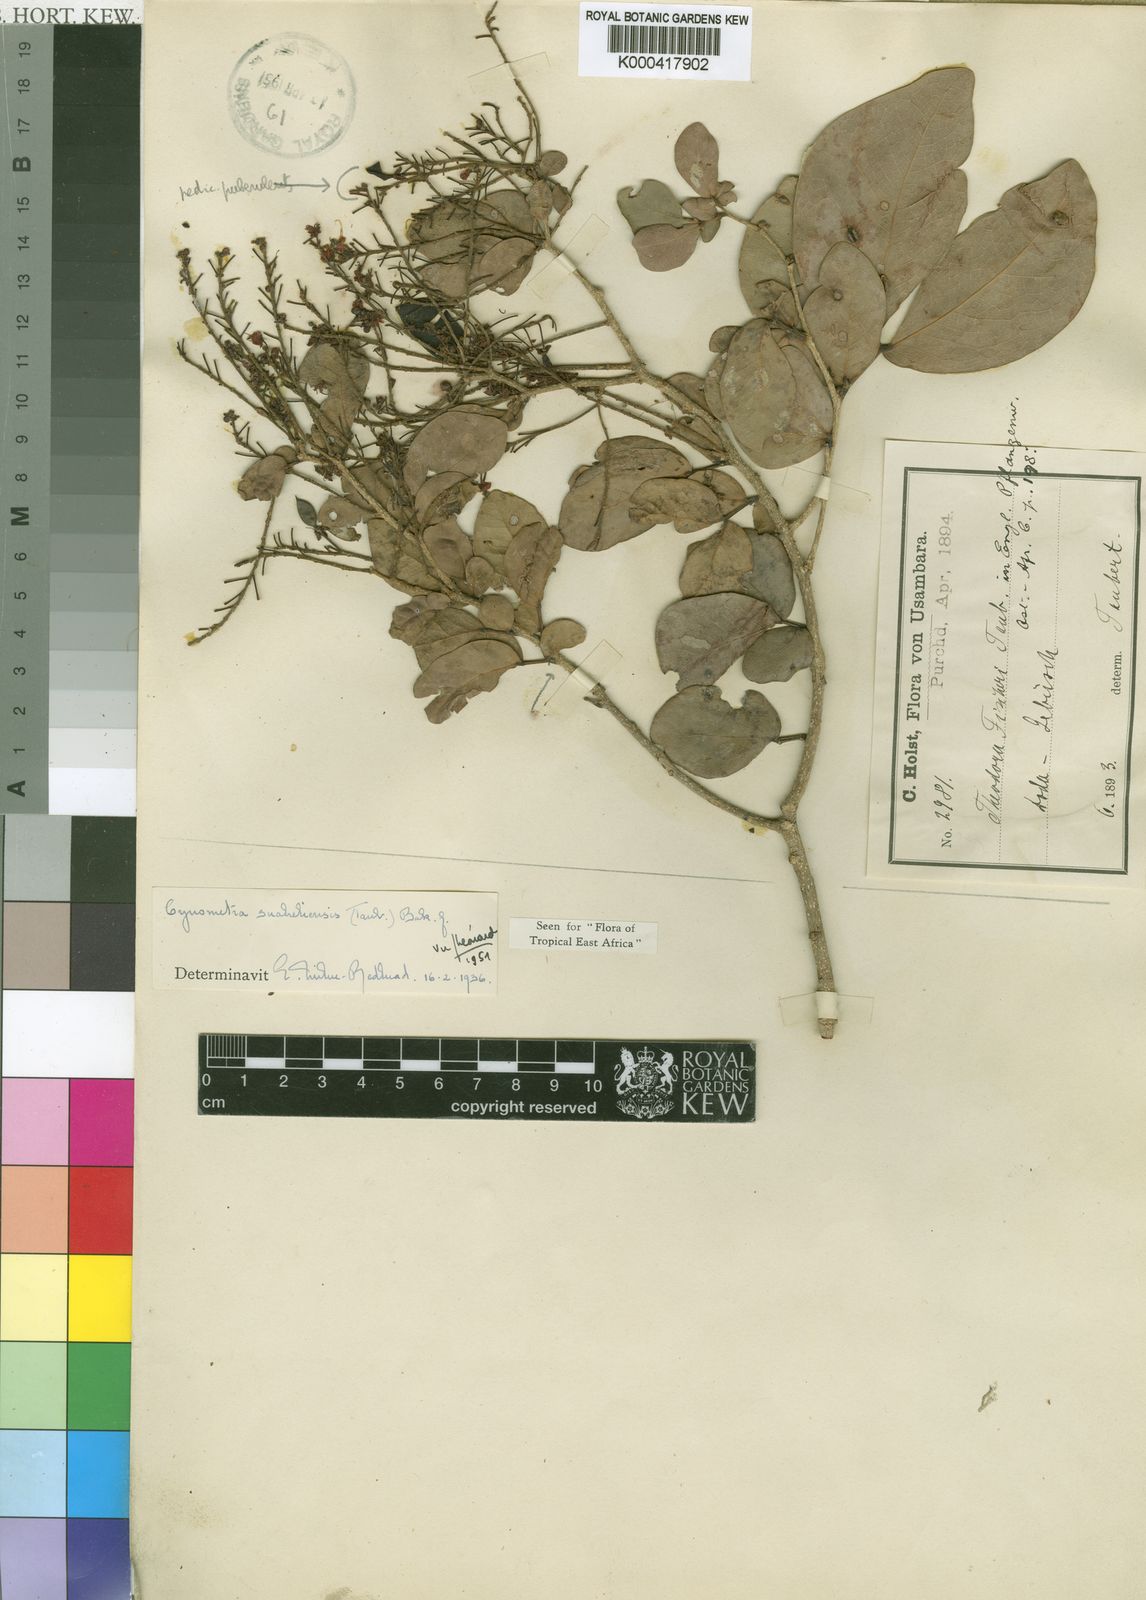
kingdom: Plantae
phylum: Tracheophyta
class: Magnoliopsida
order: Fabales
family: Fabaceae
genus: Cynometra
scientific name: Cynometra suaheliensis
